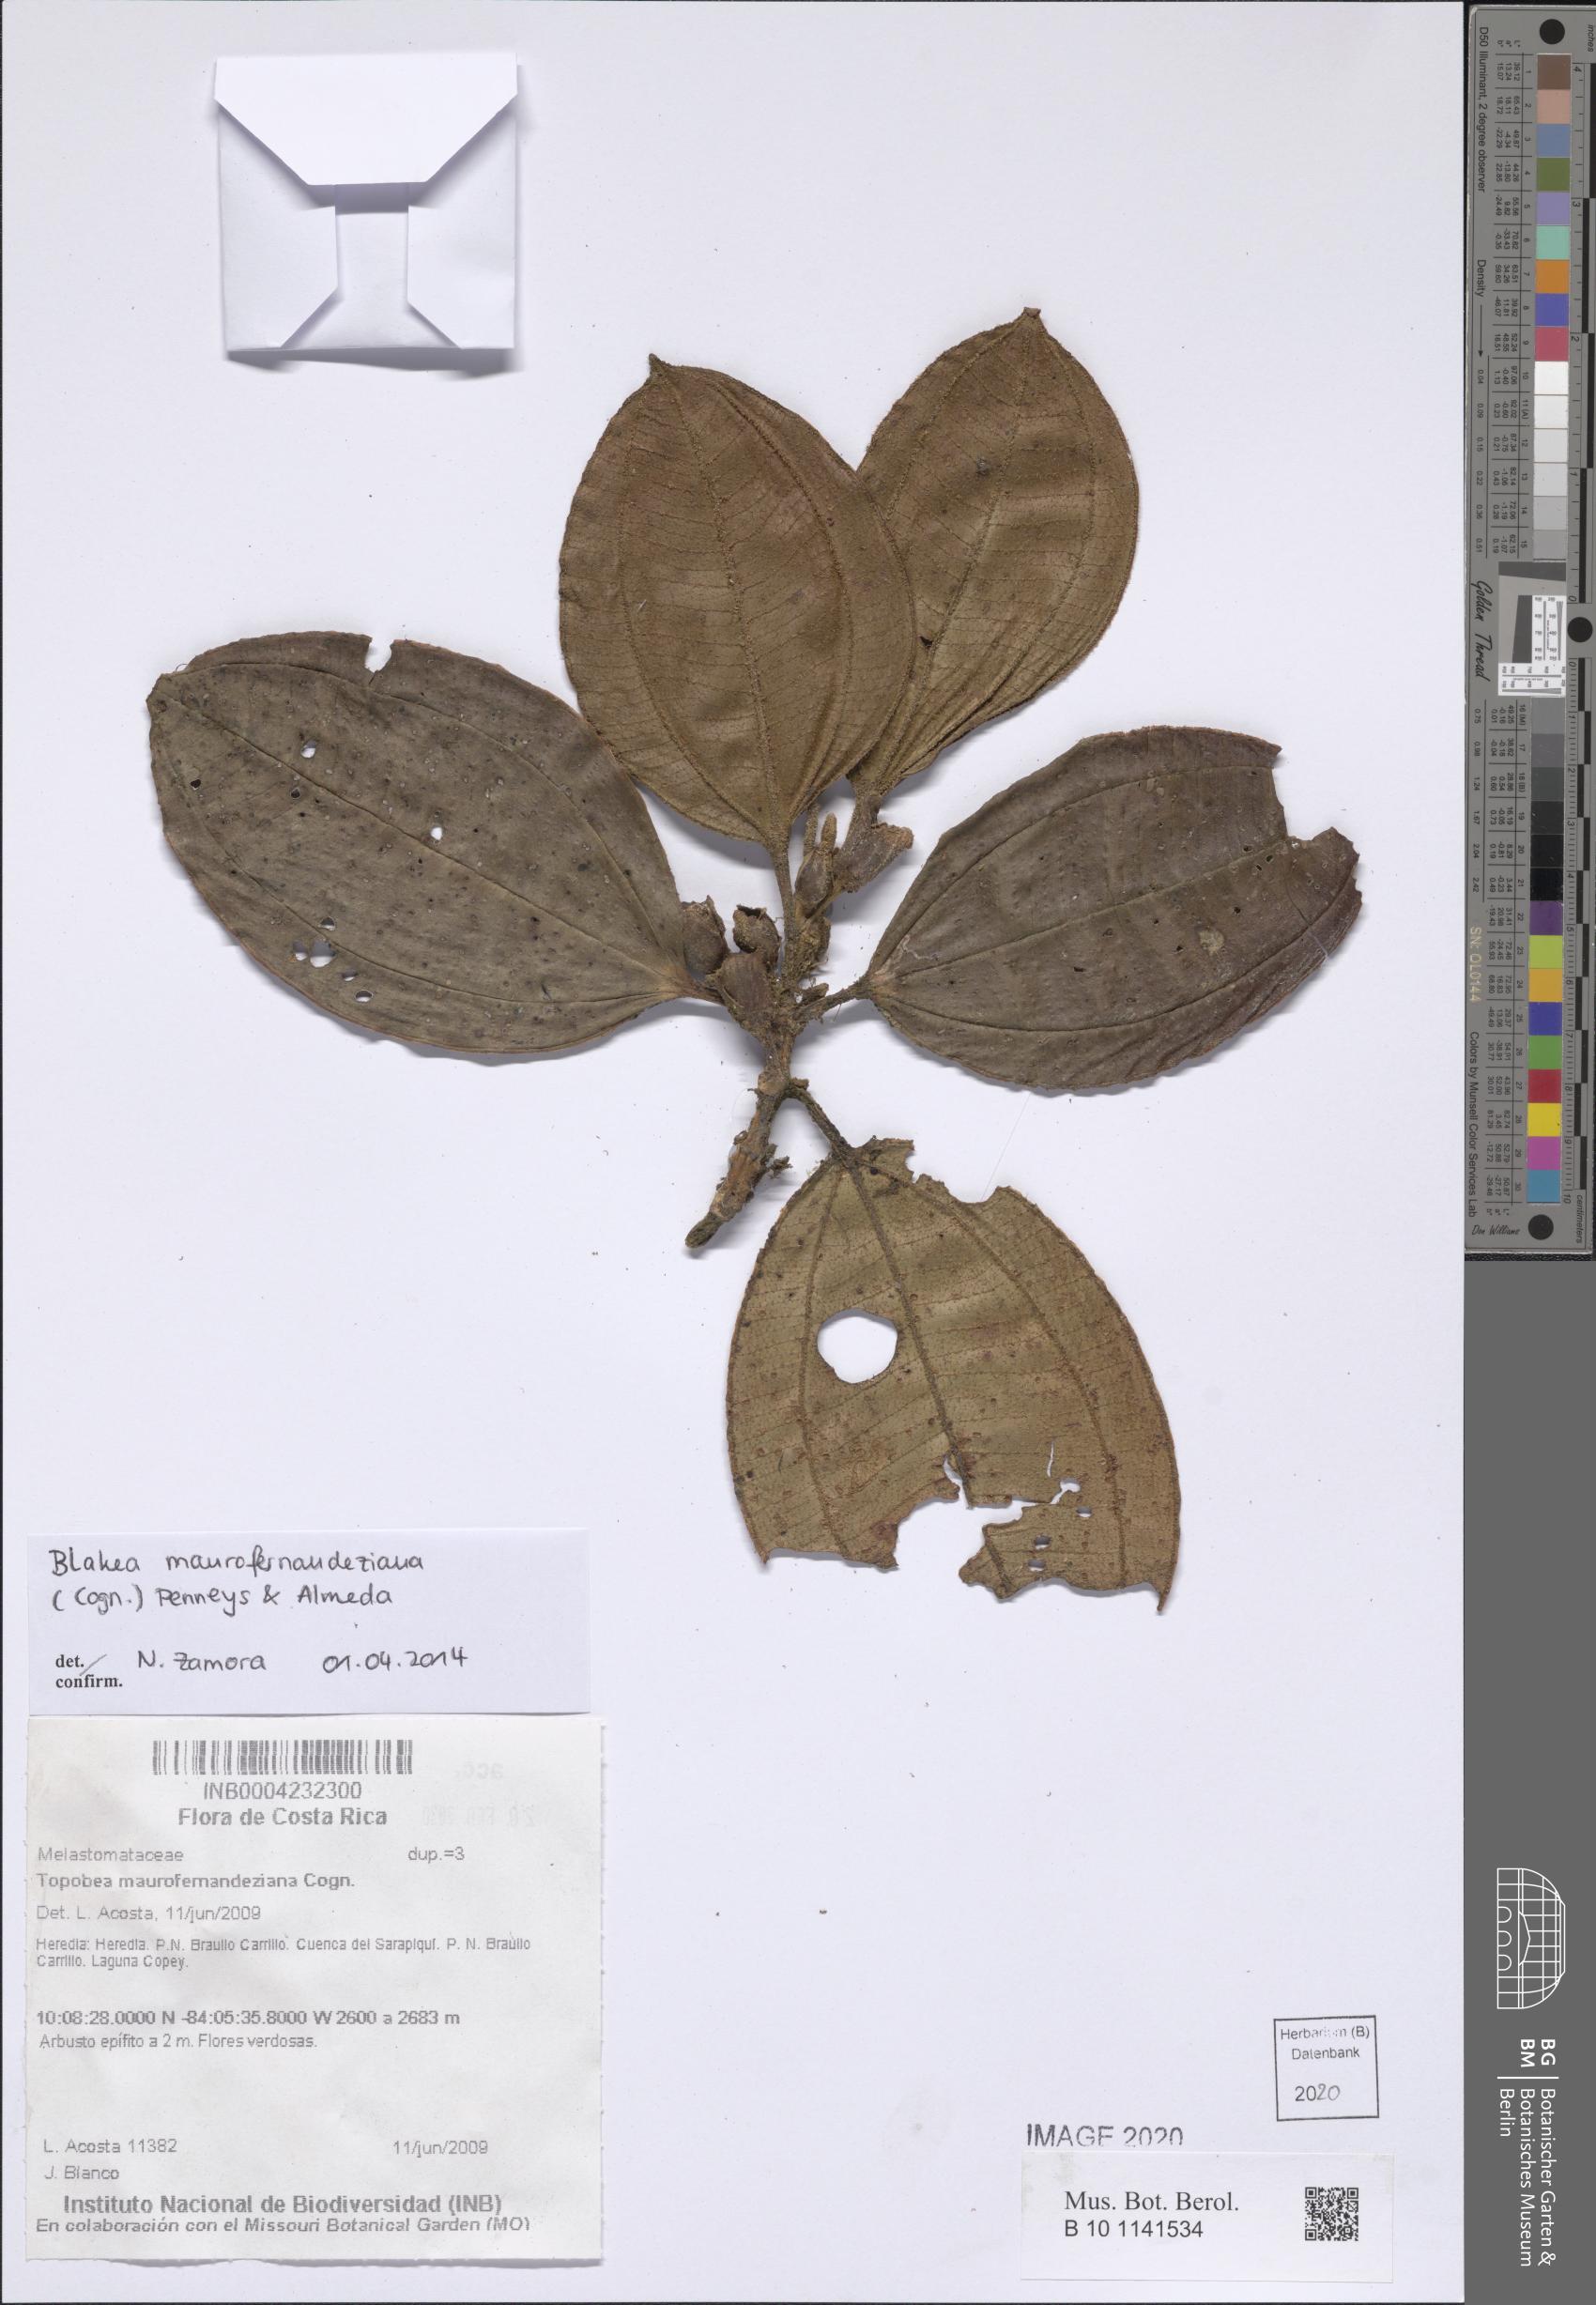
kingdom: Plantae
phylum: Tracheophyta
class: Magnoliopsida
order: Myrtales
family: Melastomataceae
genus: Blakea
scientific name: Blakea maurofernandeziana
